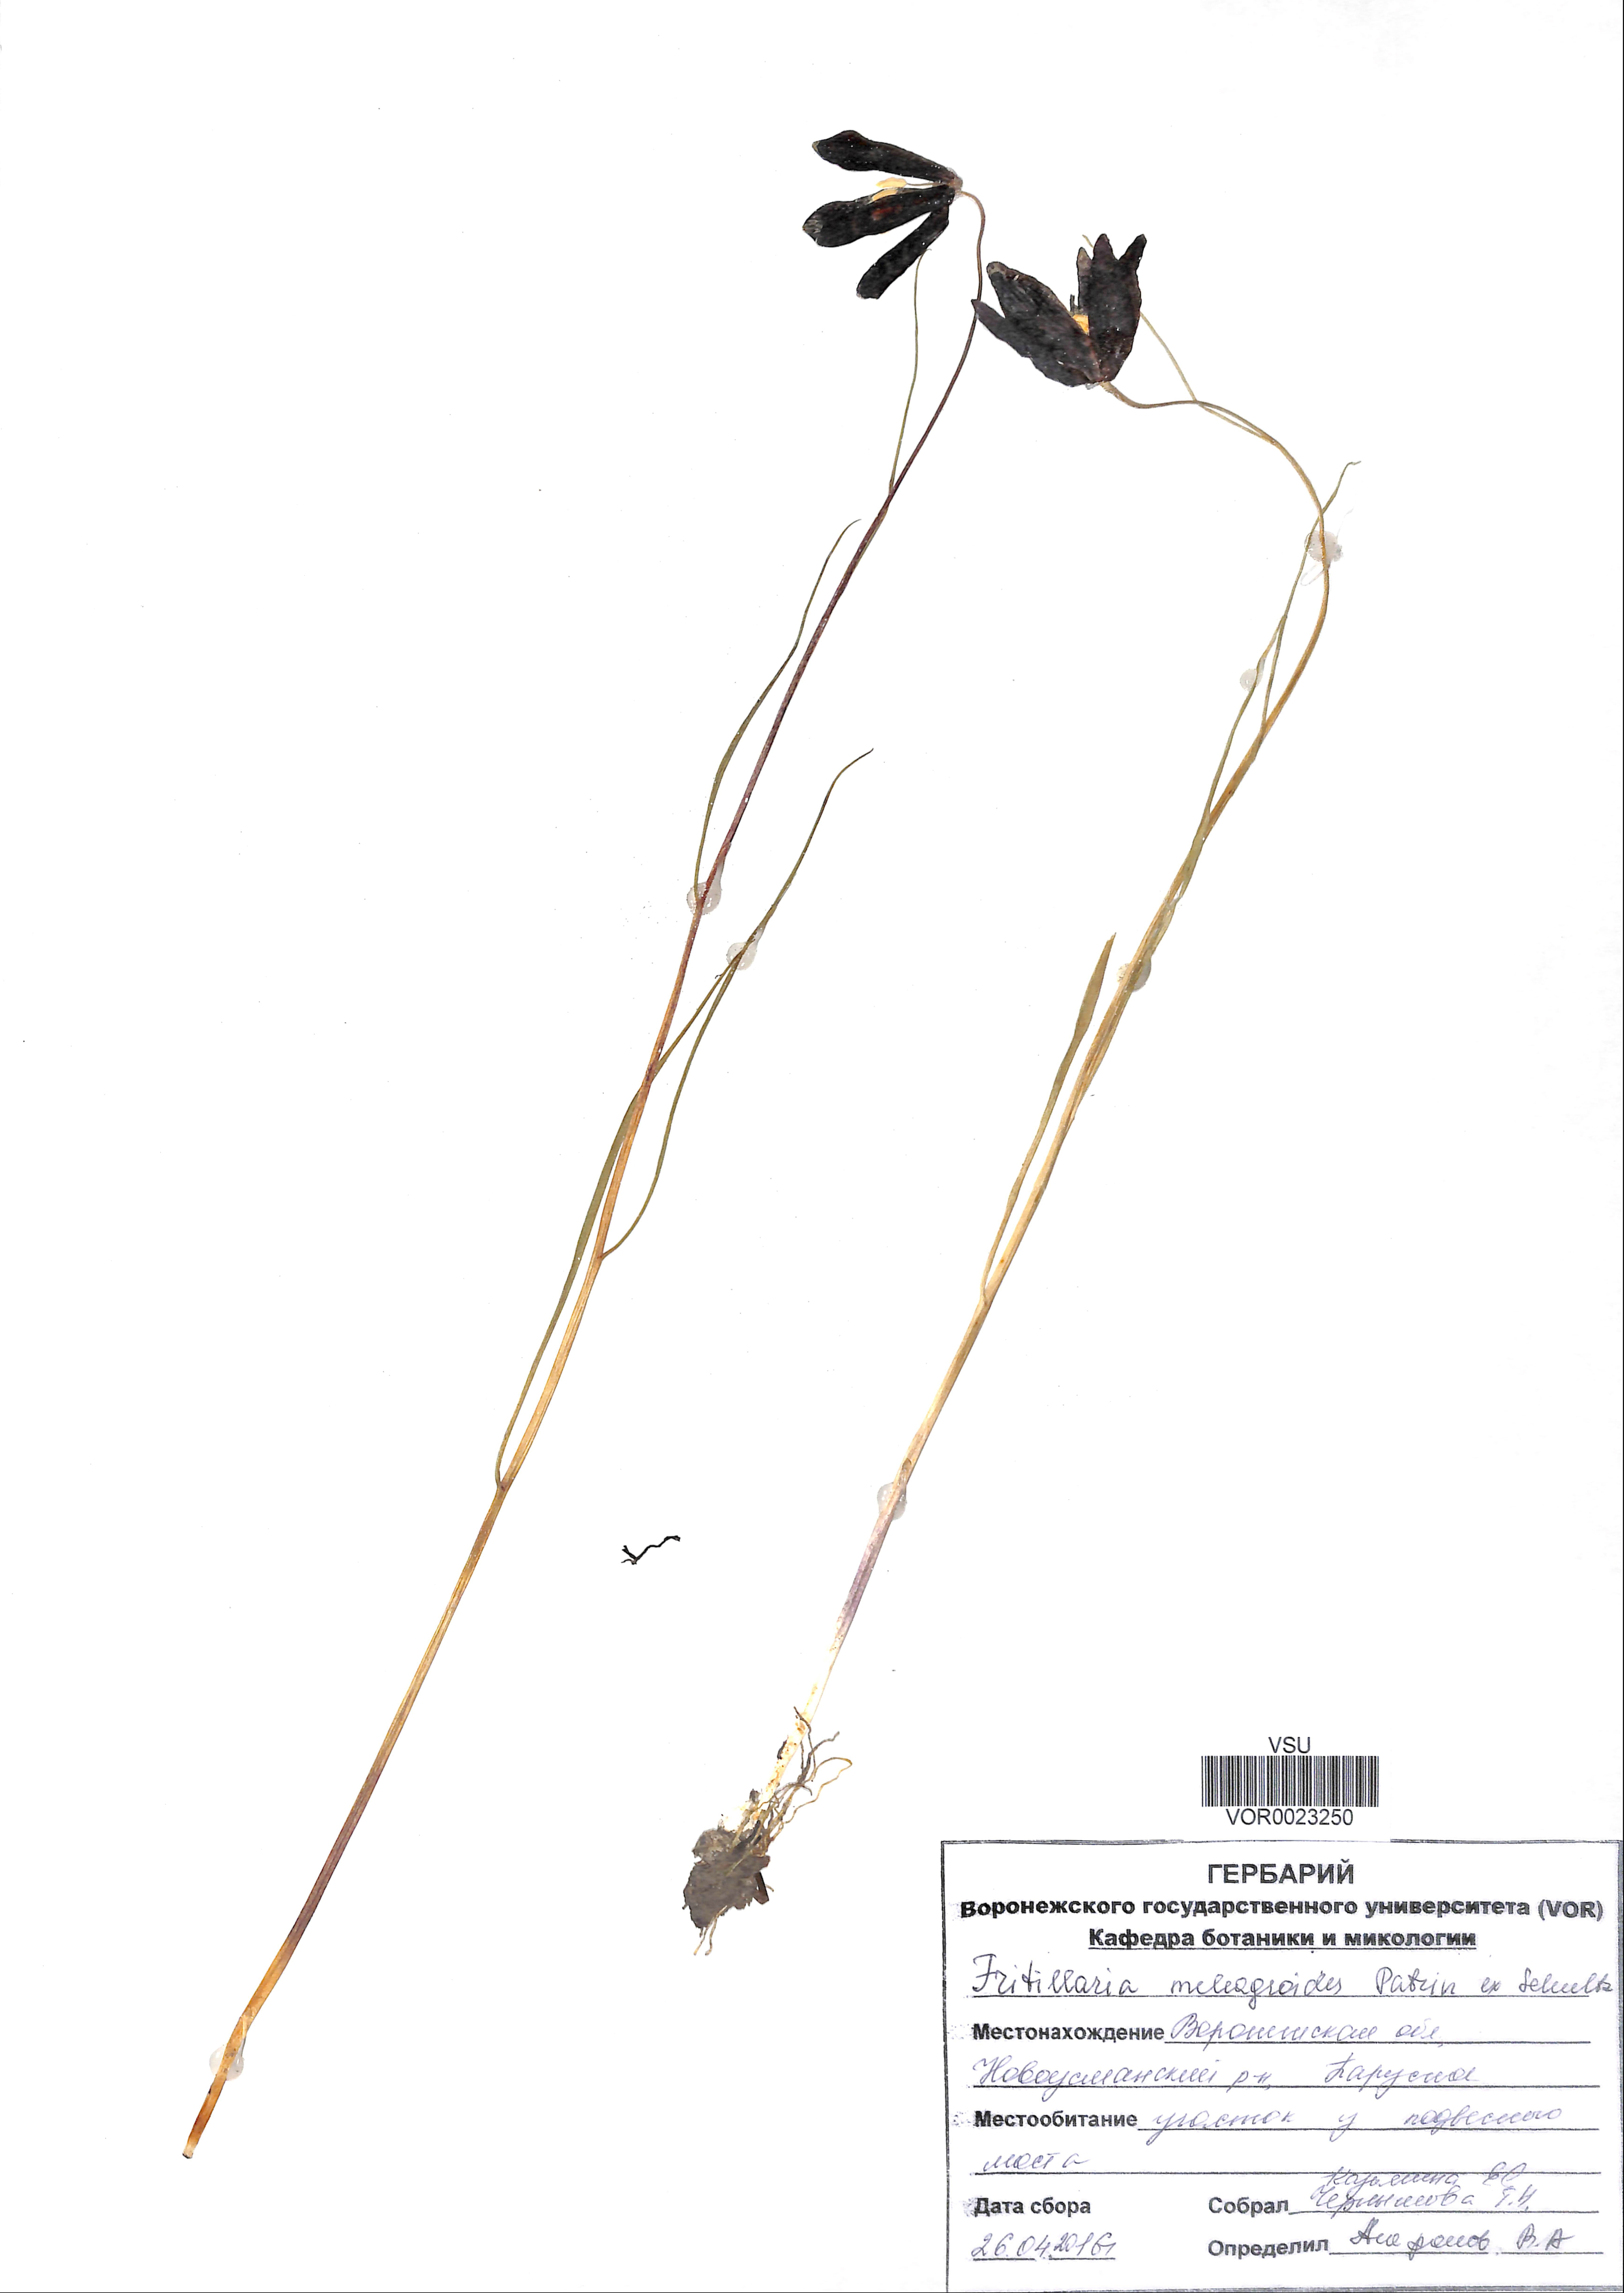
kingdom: Plantae
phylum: Tracheophyta
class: Liliopsida
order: Liliales
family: Liliaceae
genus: Fritillaria
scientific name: Fritillaria meleagroides
